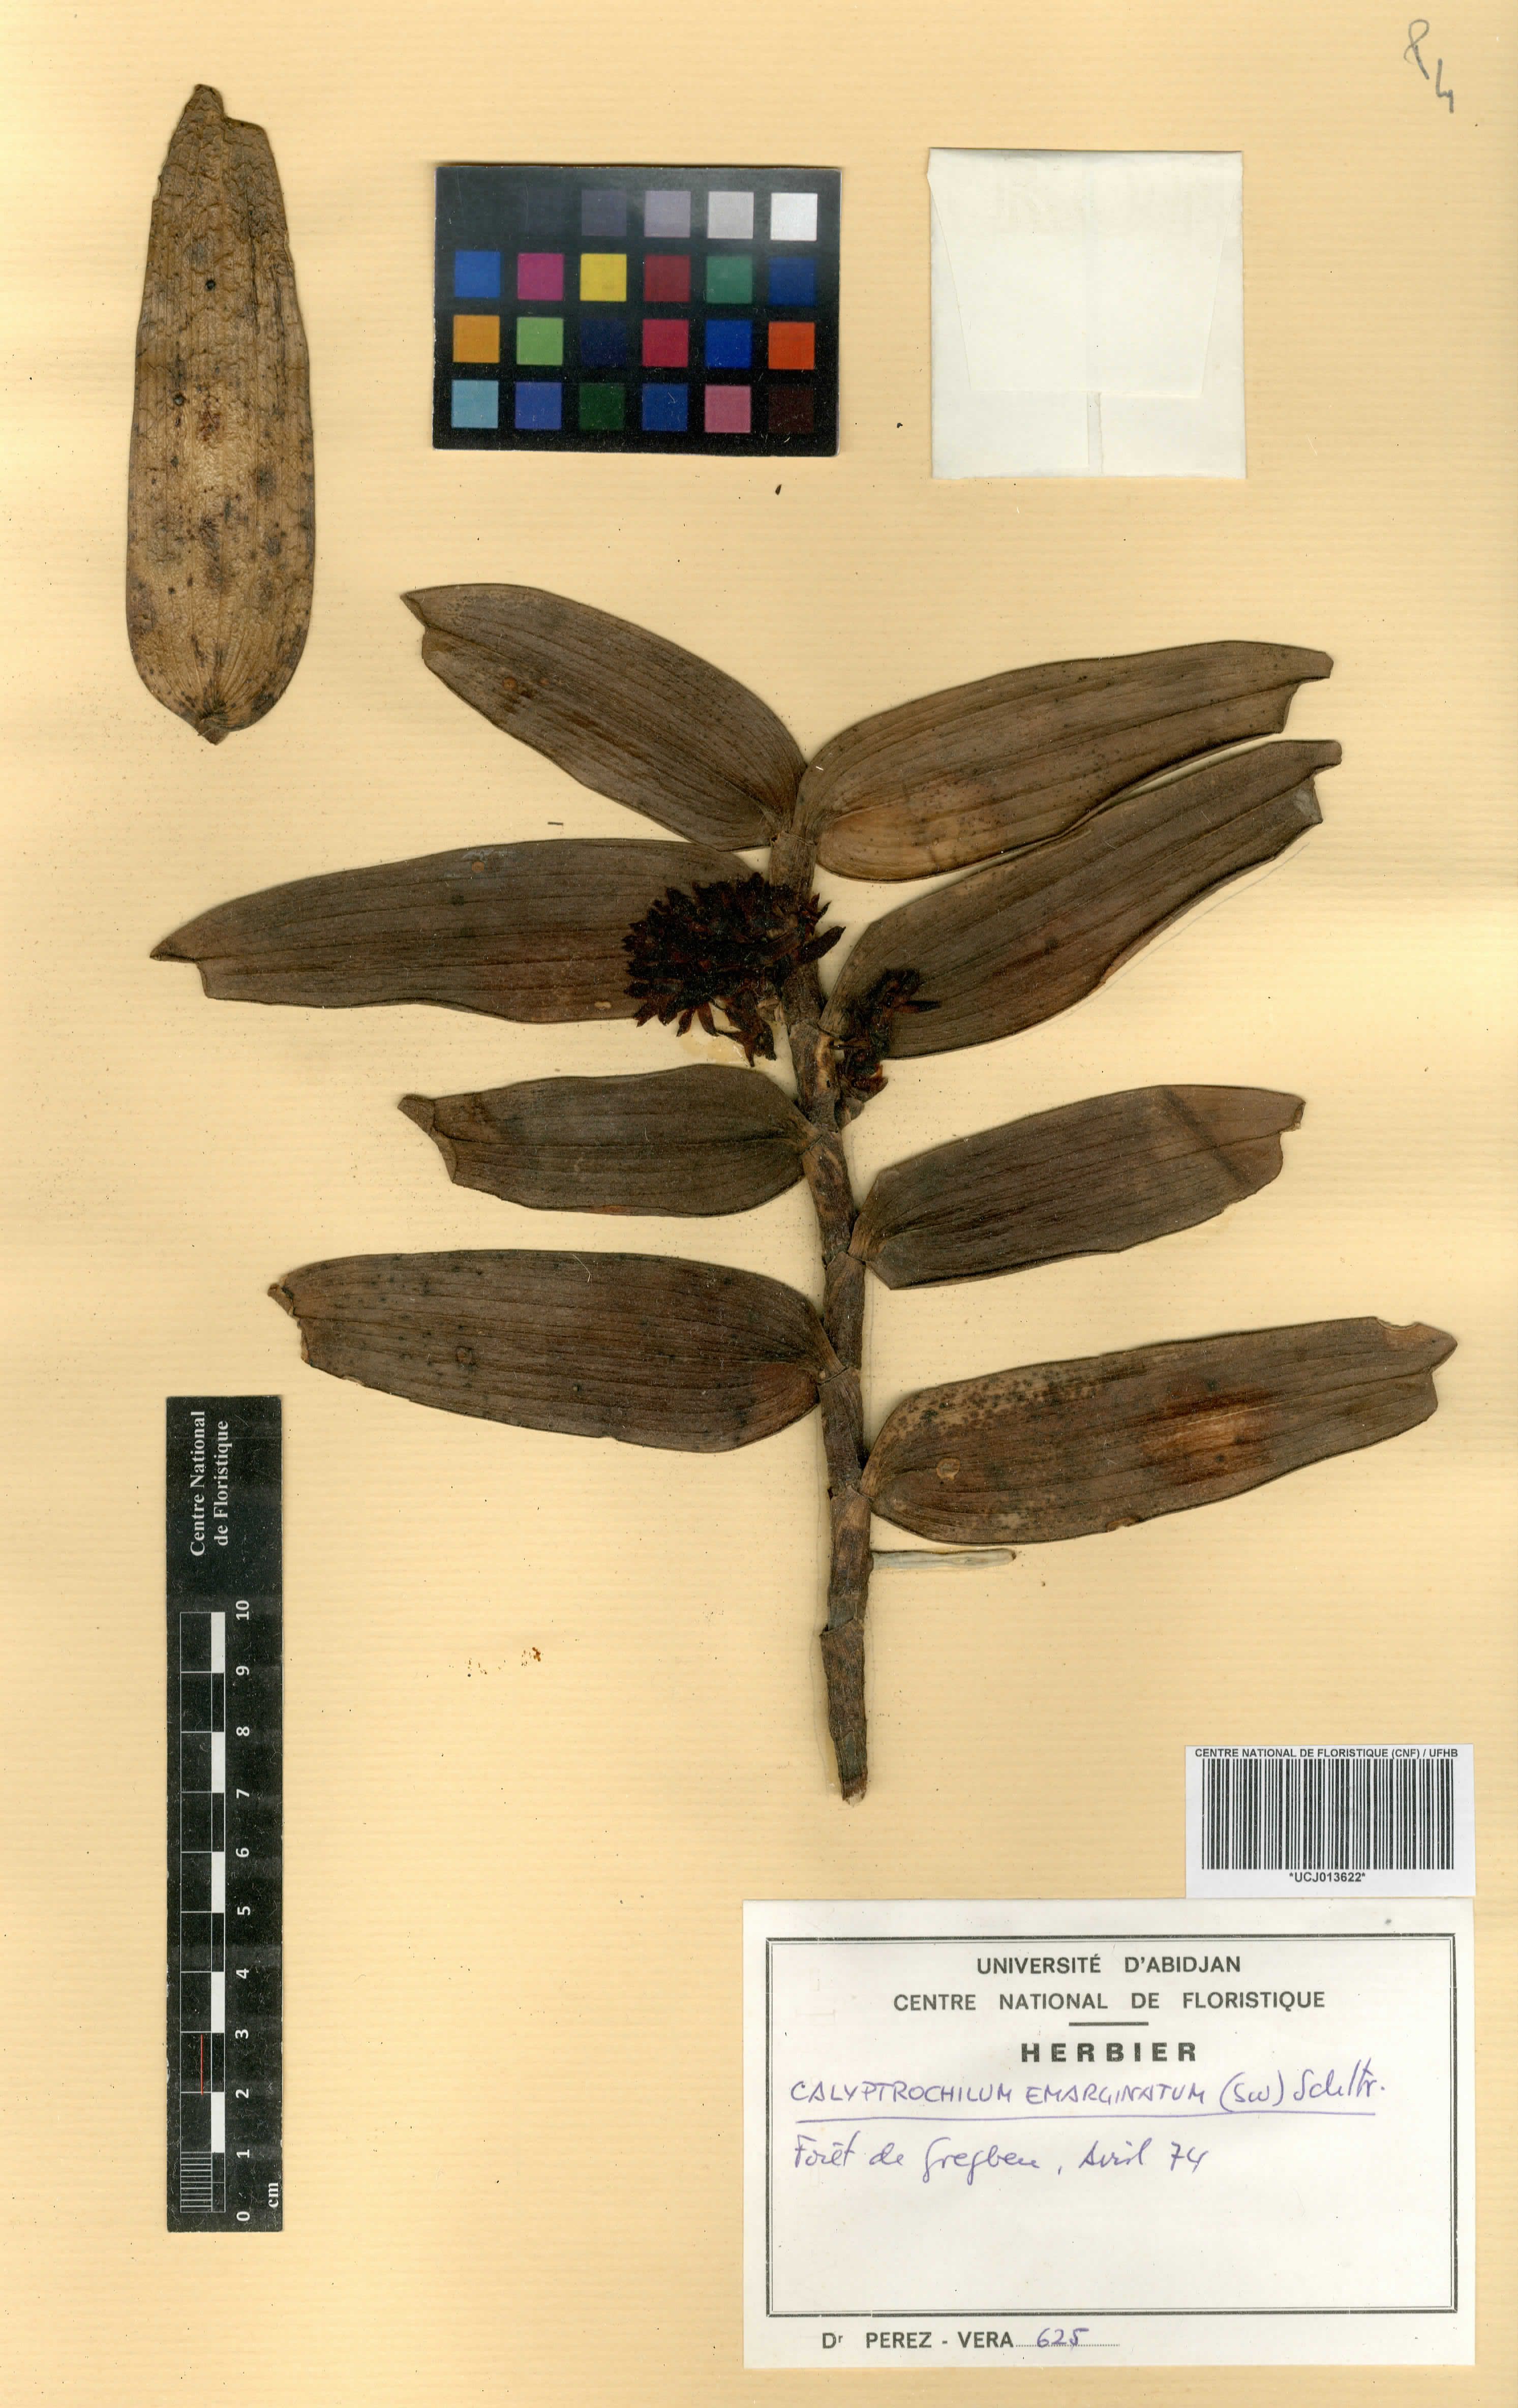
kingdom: Plantae
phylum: Tracheophyta
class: Liliopsida
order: Asparagales
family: Orchidaceae
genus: Calyptrochilum
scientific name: Calyptrochilum emarginatum
